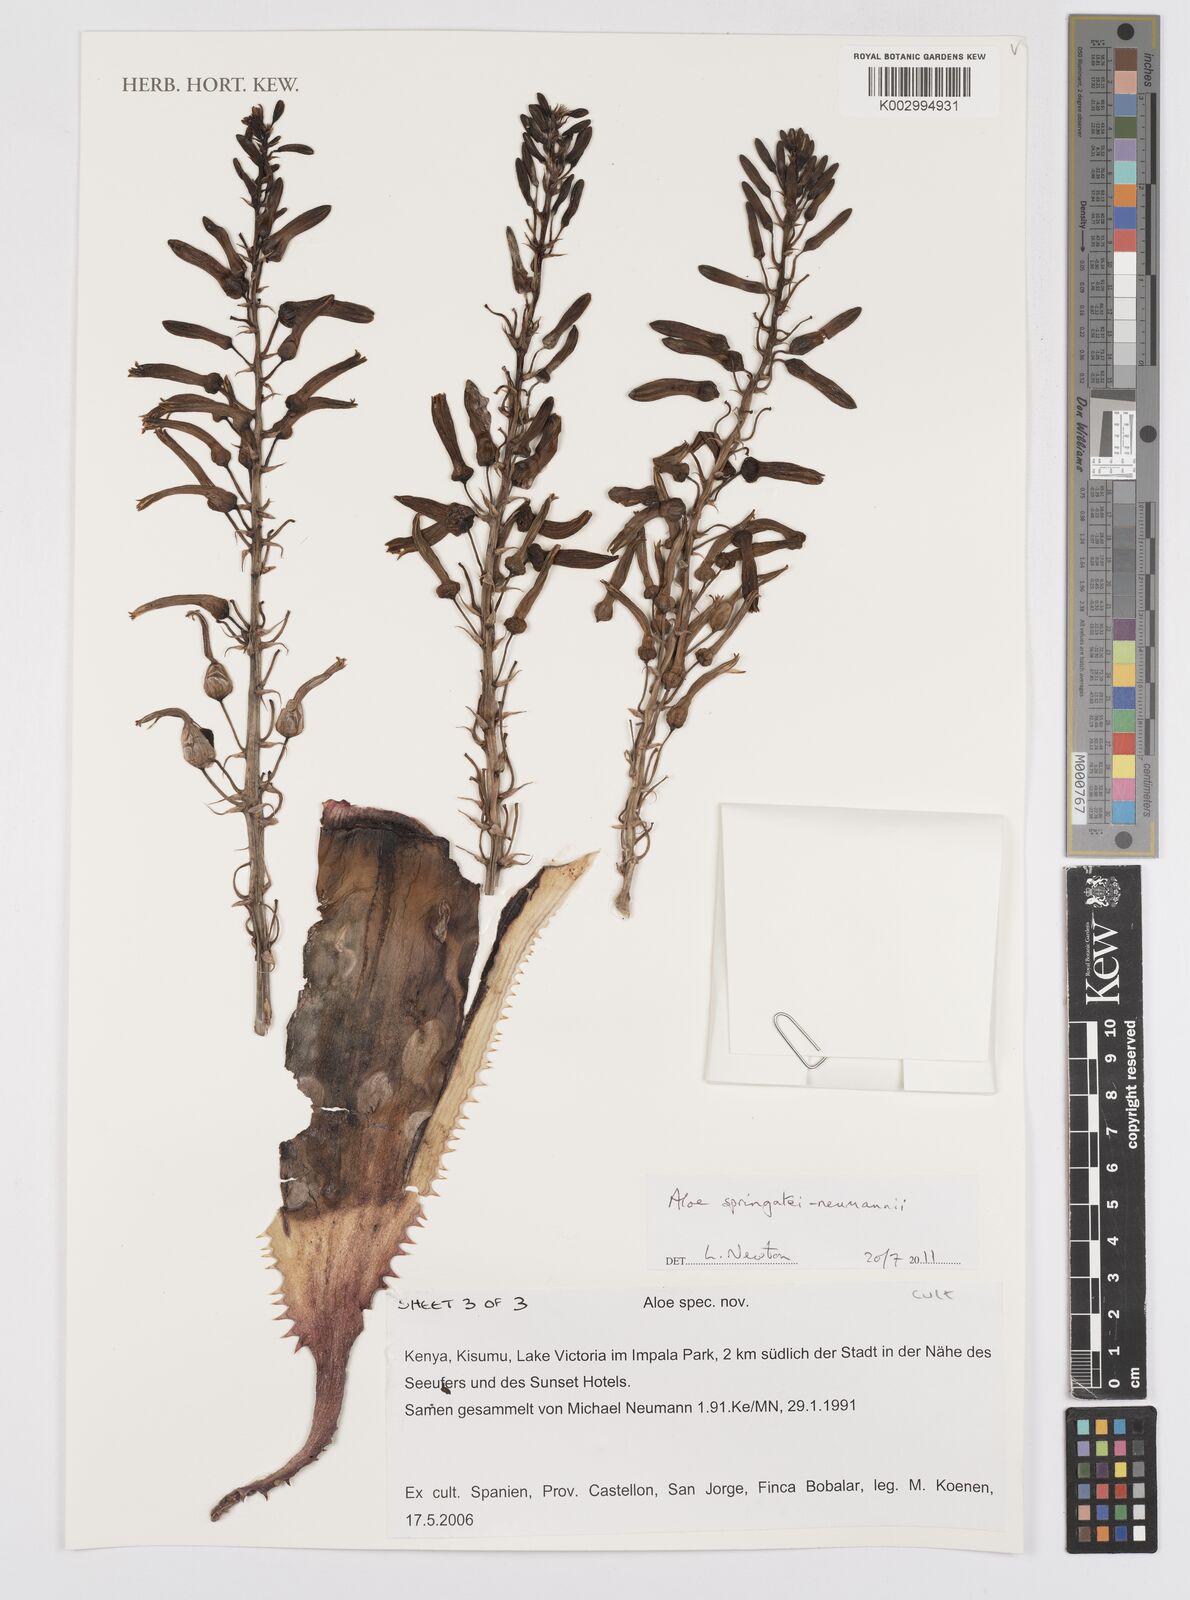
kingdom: Plantae
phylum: Tracheophyta
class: Liliopsida
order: Asparagales
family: Asphodelaceae
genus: Aloe
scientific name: Aloe springatei-neumannii
